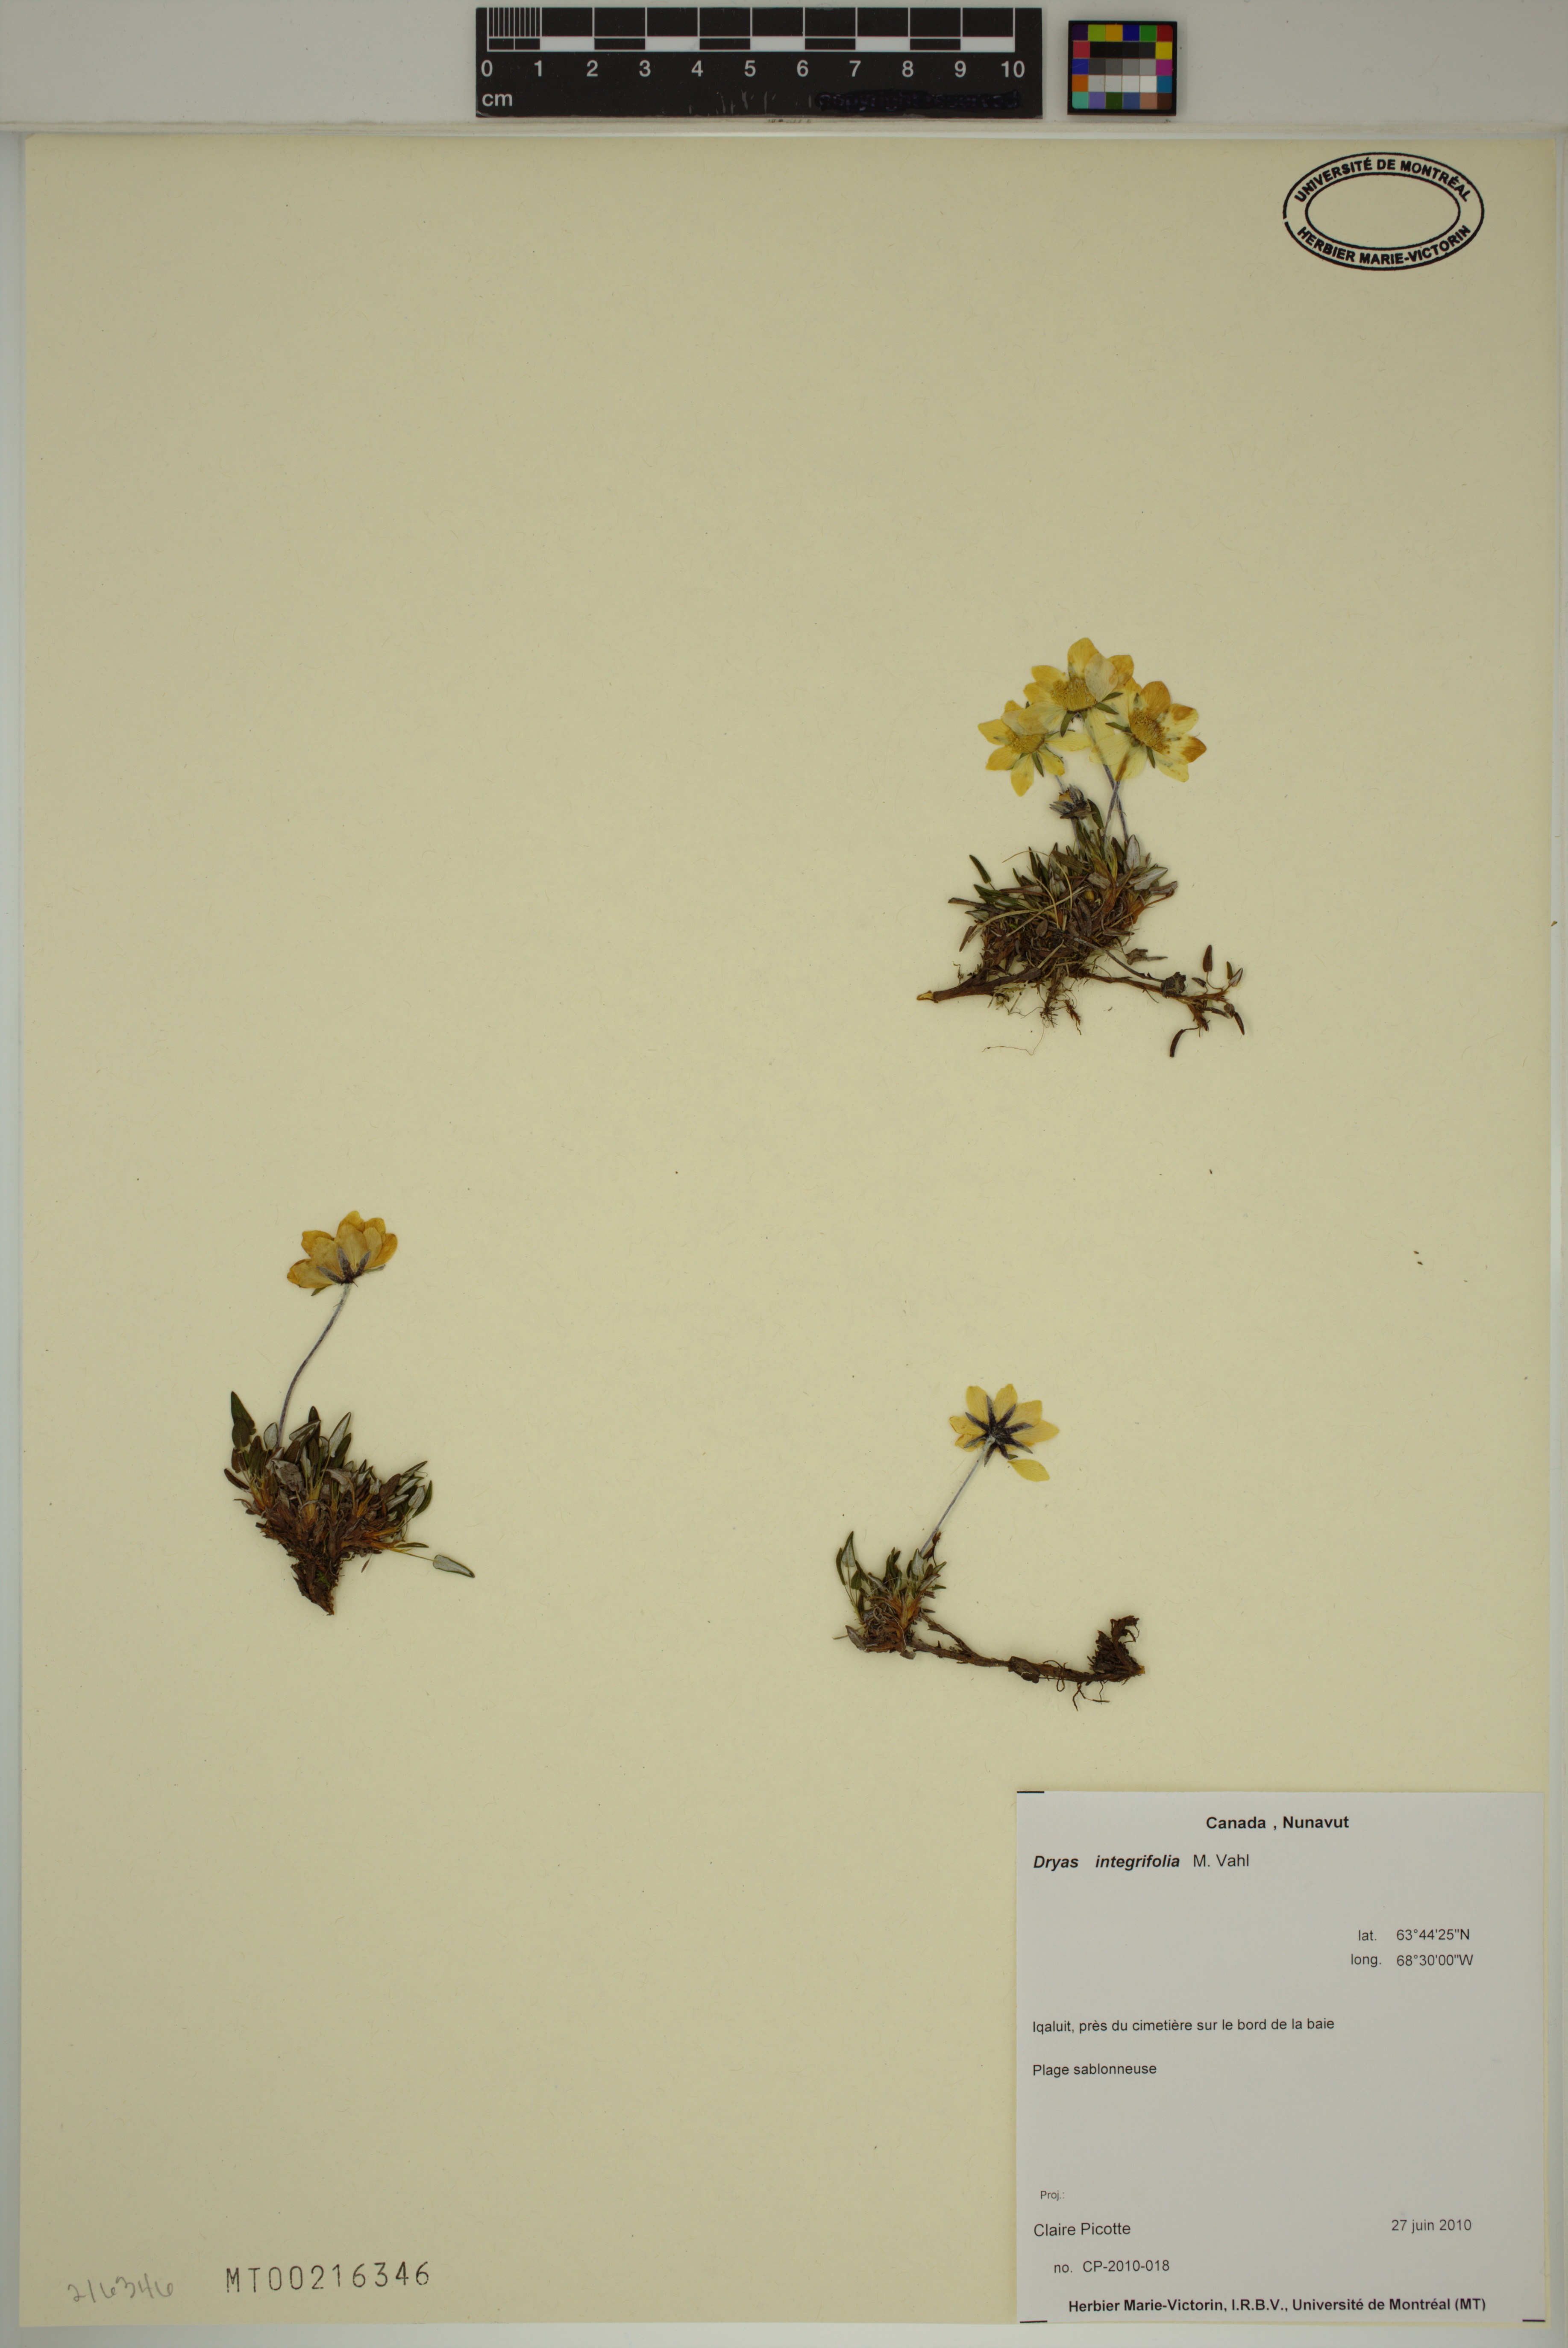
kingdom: Plantae
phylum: Tracheophyta
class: Magnoliopsida
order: Rosales
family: Rosaceae
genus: Dryas
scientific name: Dryas integrifolia
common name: Entire-leaved mountain avens
